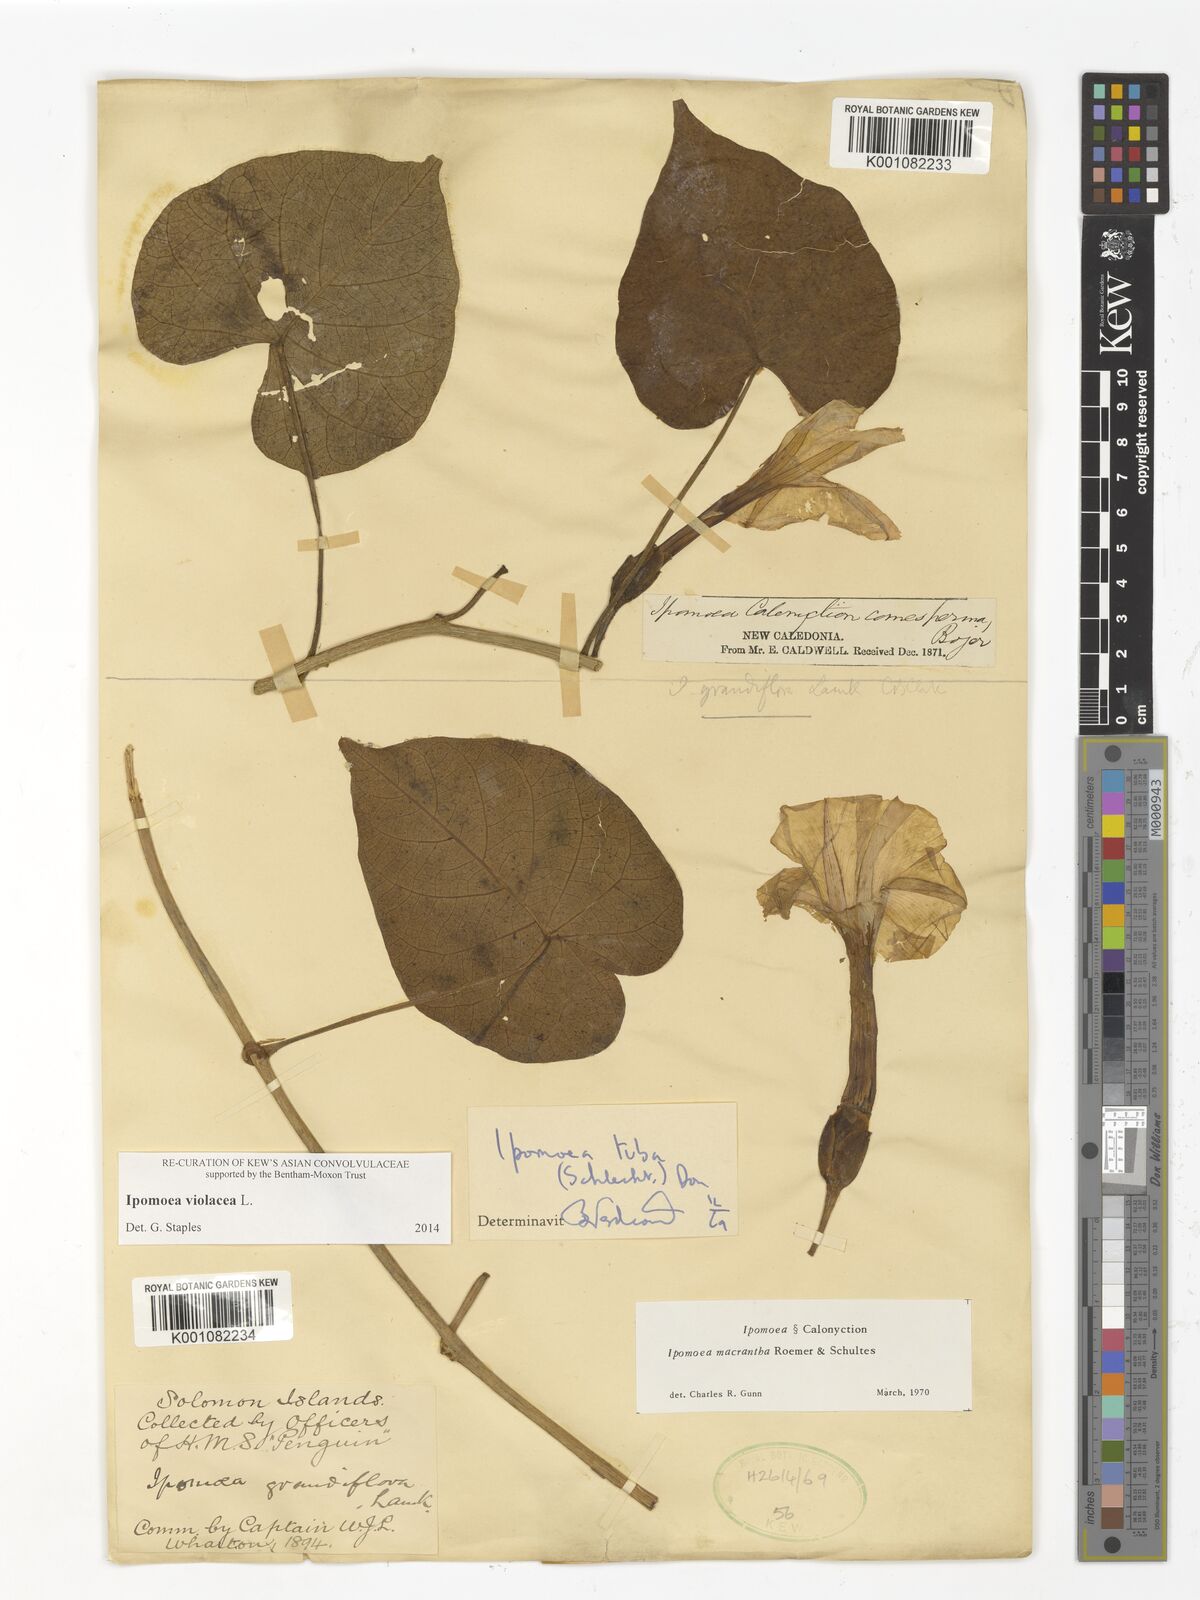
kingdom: Plantae
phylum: Tracheophyta
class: Magnoliopsida
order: Solanales
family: Convolvulaceae
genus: Ipomoea
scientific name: Ipomoea violacea
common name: Beach moonflower
